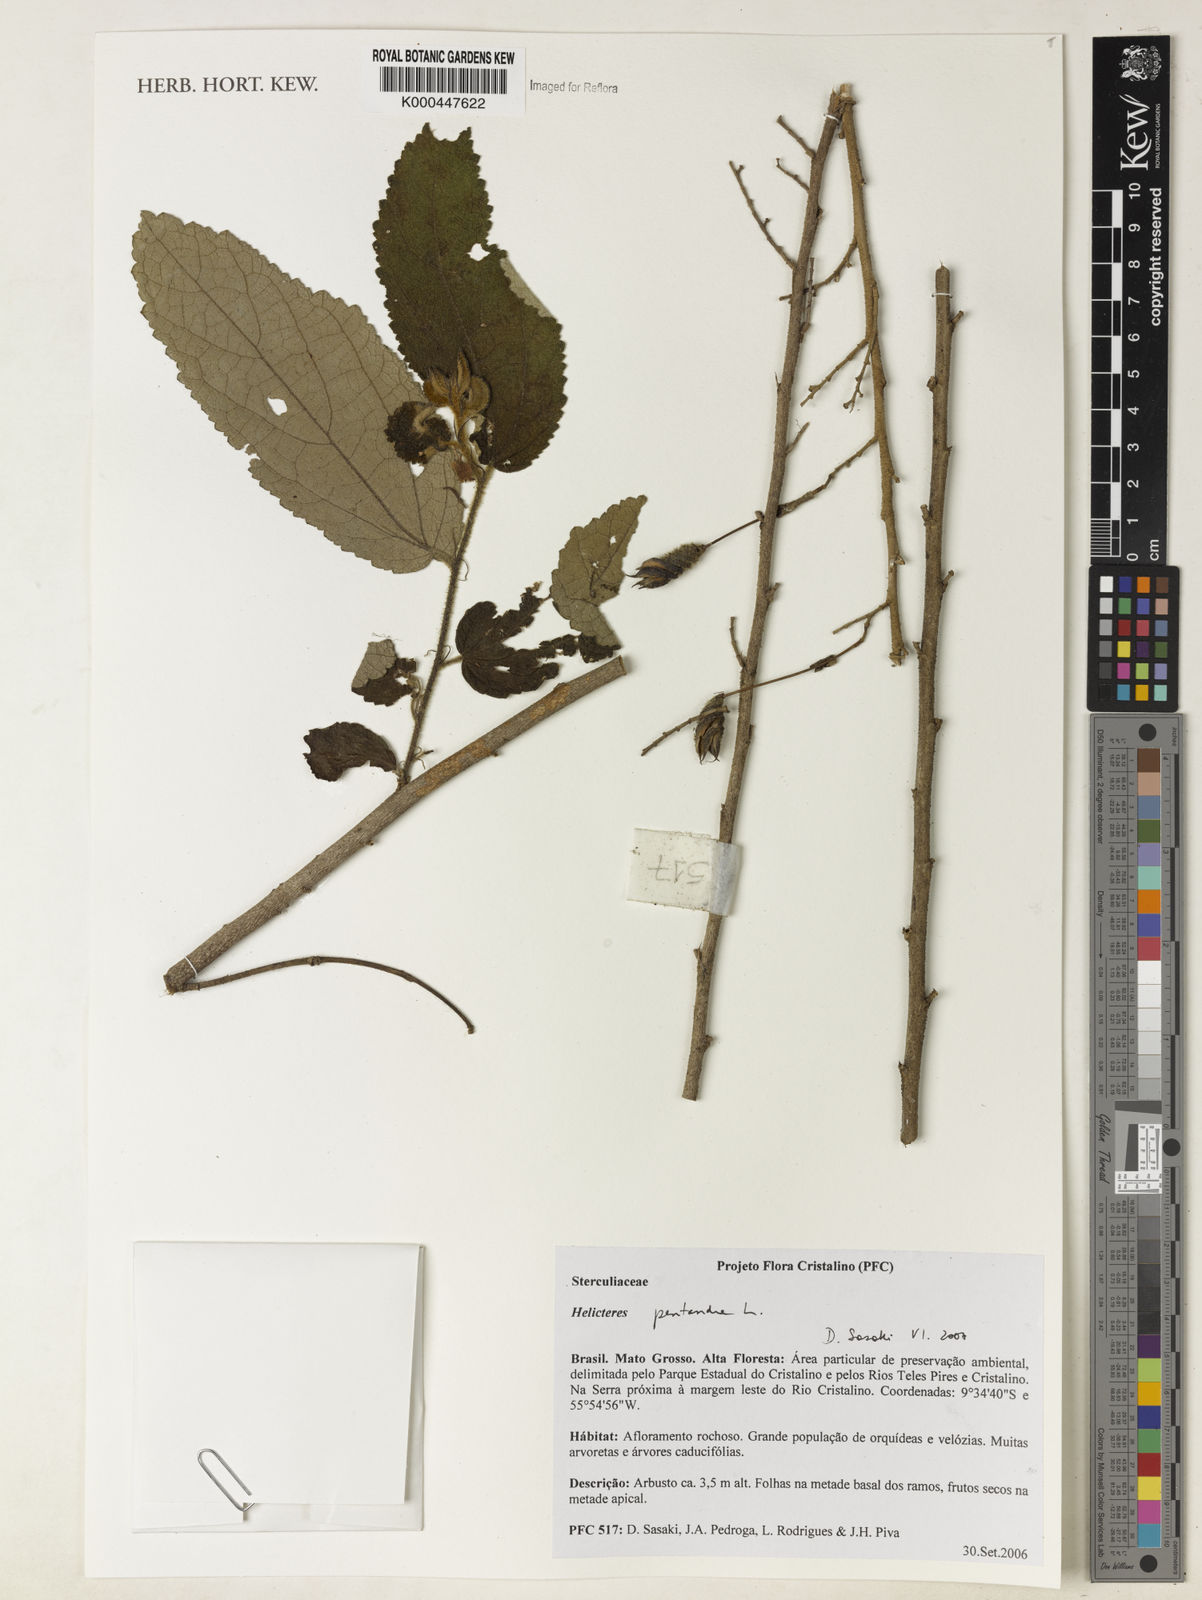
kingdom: Plantae
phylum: Tracheophyta
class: Magnoliopsida
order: Malvales
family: Malvaceae
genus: Helicteres
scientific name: Helicteres pentandra
